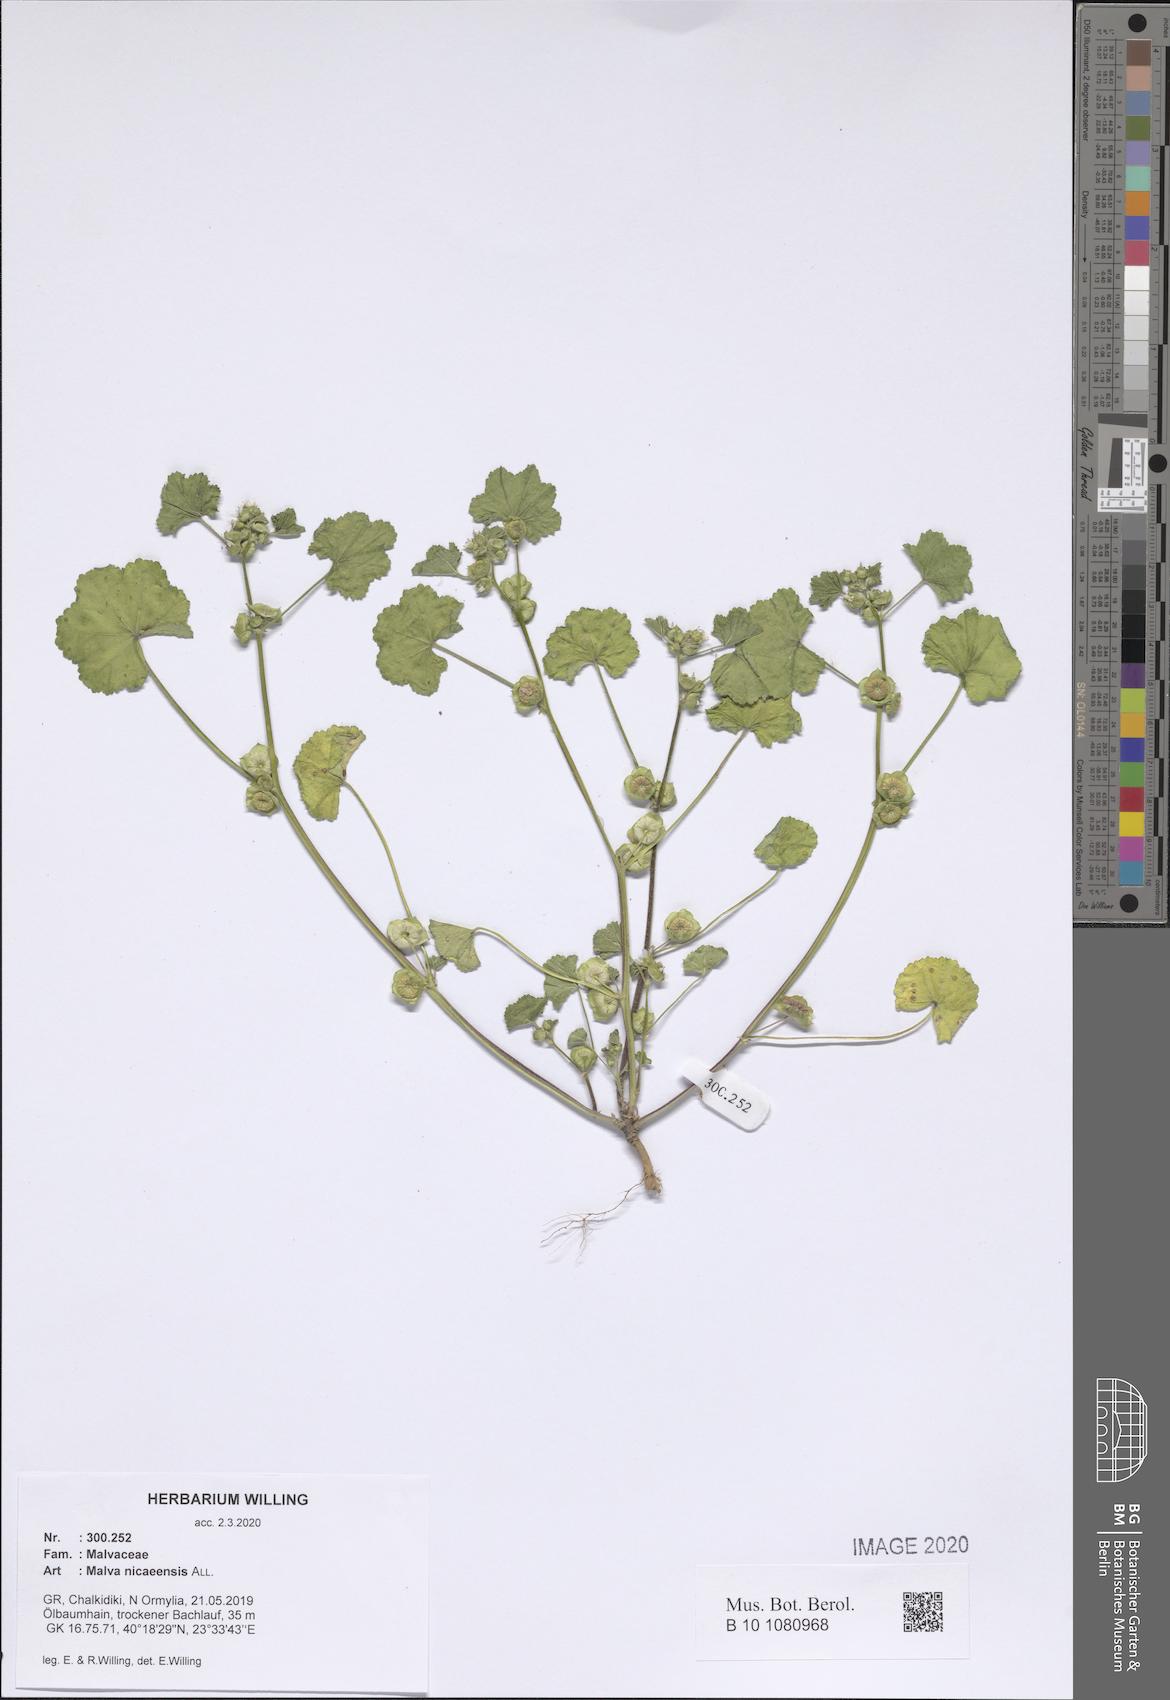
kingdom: Plantae
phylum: Tracheophyta
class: Magnoliopsida
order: Malvales
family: Malvaceae
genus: Malva
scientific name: Malva nicaeensis
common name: French mallow
